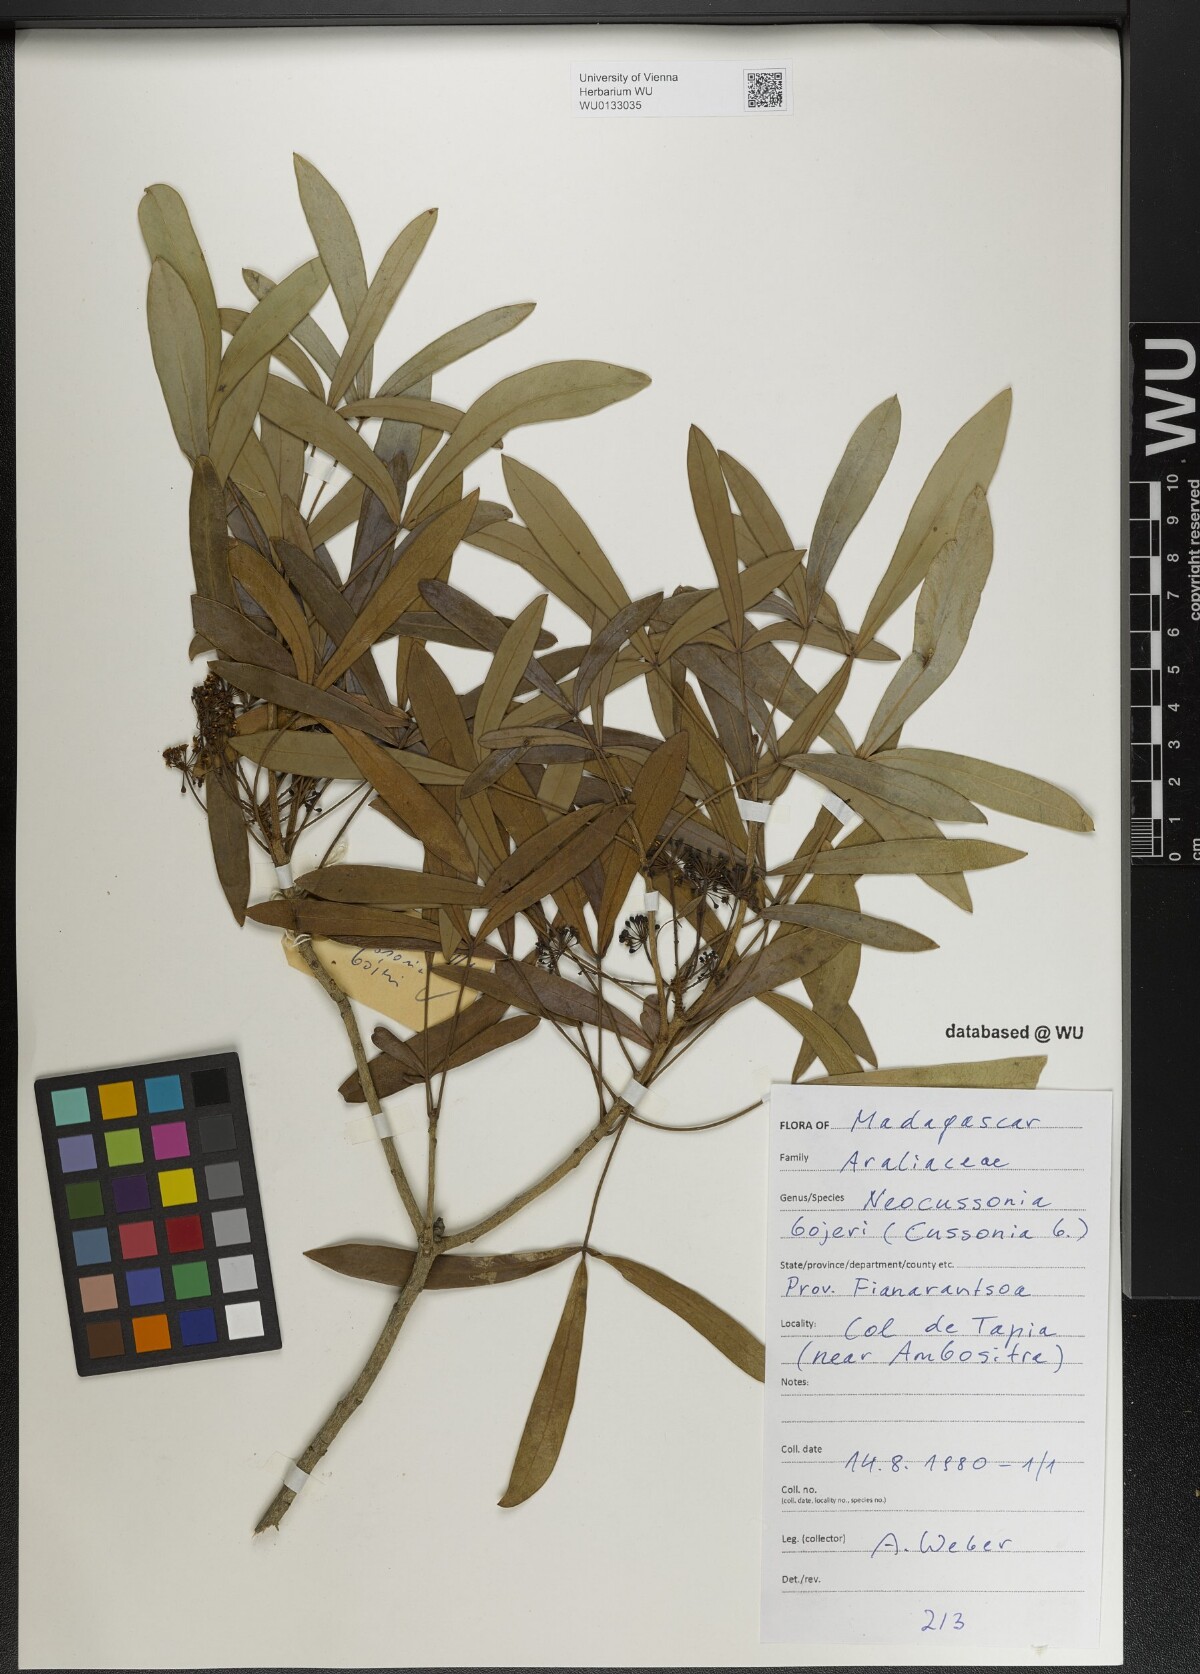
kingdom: Plantae
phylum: Tracheophyta
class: Magnoliopsida
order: Apiales
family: Araliaceae
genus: Neocussonia
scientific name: Neocussonia bojeri
